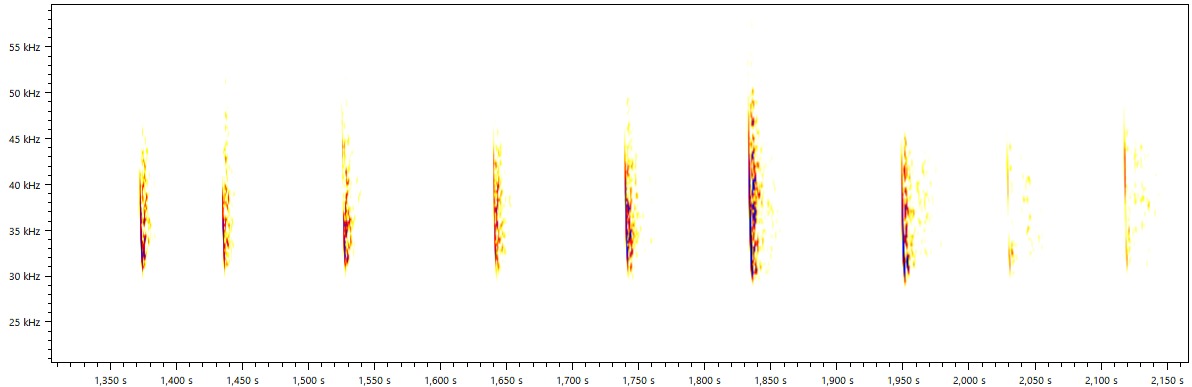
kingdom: Animalia
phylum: Chordata
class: Mammalia
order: Chiroptera
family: Vespertilionidae
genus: Plecotus
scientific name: Plecotus auritus
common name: Brun langøre
